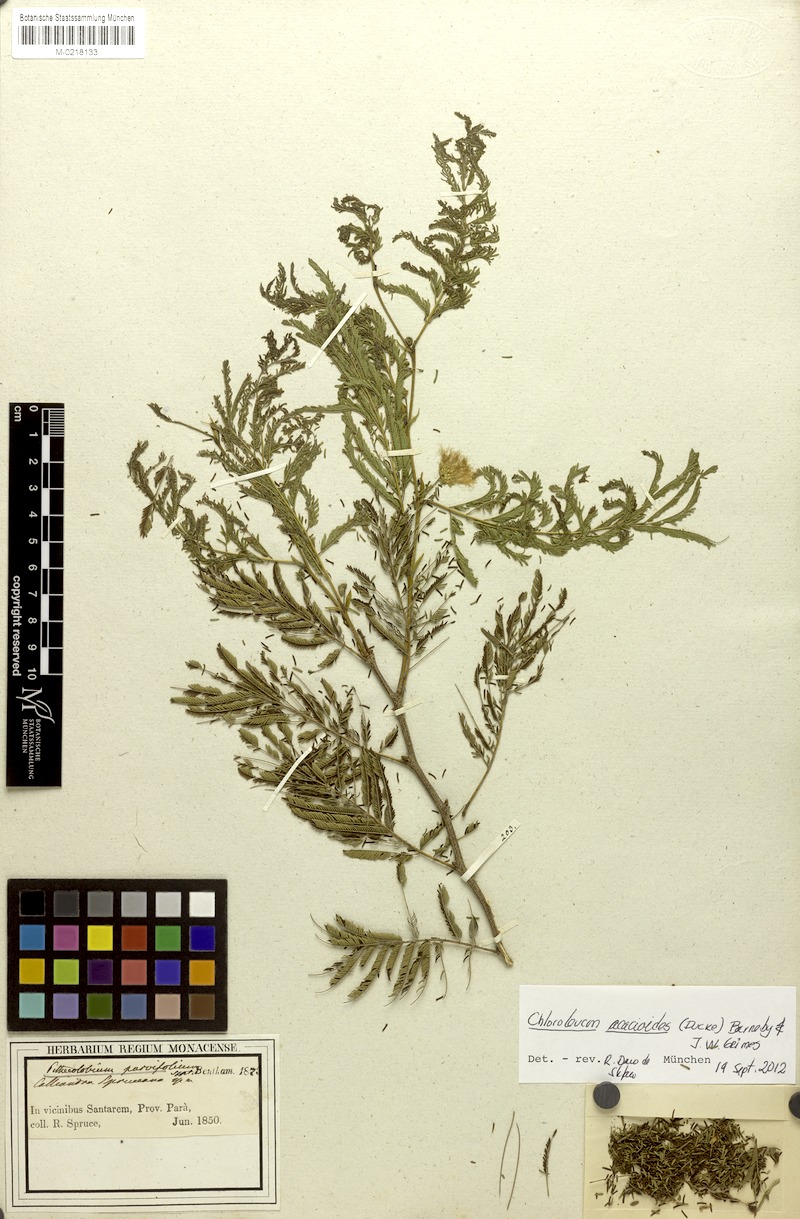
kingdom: Plantae
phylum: Tracheophyta
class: Magnoliopsida
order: Fabales
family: Fabaceae
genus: Chloroleucon
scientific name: Chloroleucon acacioides
